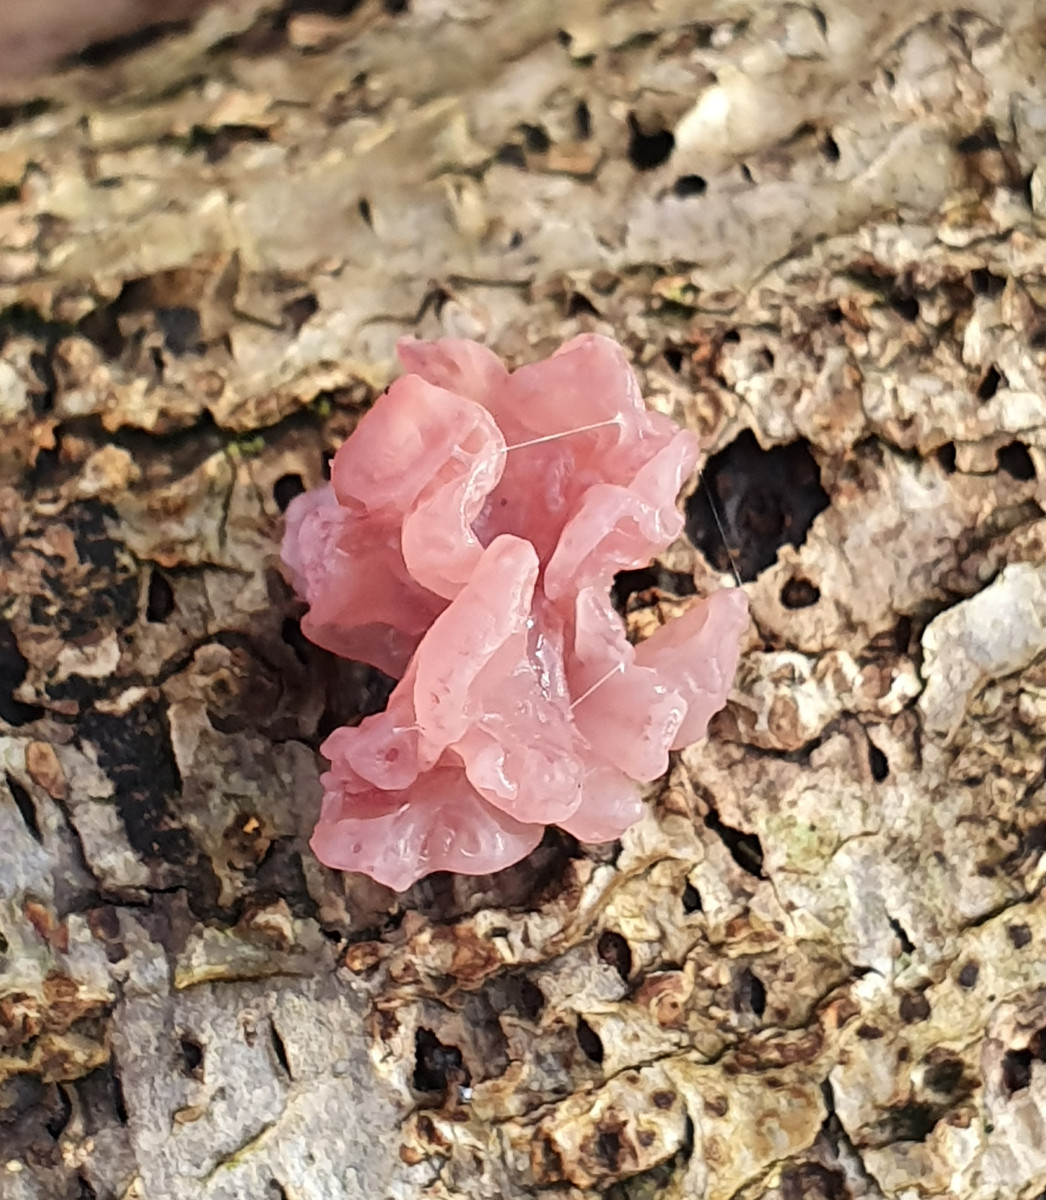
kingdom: Fungi
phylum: Ascomycota
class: Leotiomycetes
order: Helotiales
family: Gelatinodiscaceae
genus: Ascocoryne
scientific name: Ascocoryne sarcoides
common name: rødlilla sejskive
